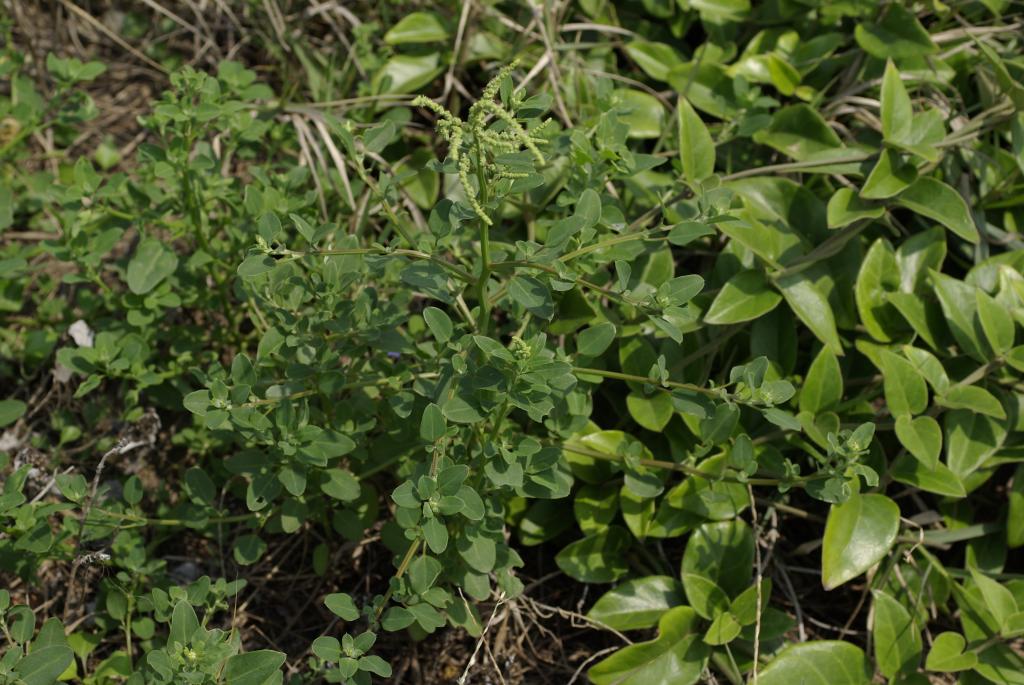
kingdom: Plantae
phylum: Tracheophyta
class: Magnoliopsida
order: Caryophyllales
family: Amaranthaceae
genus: Chenopodium
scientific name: Chenopodium acuminatum
